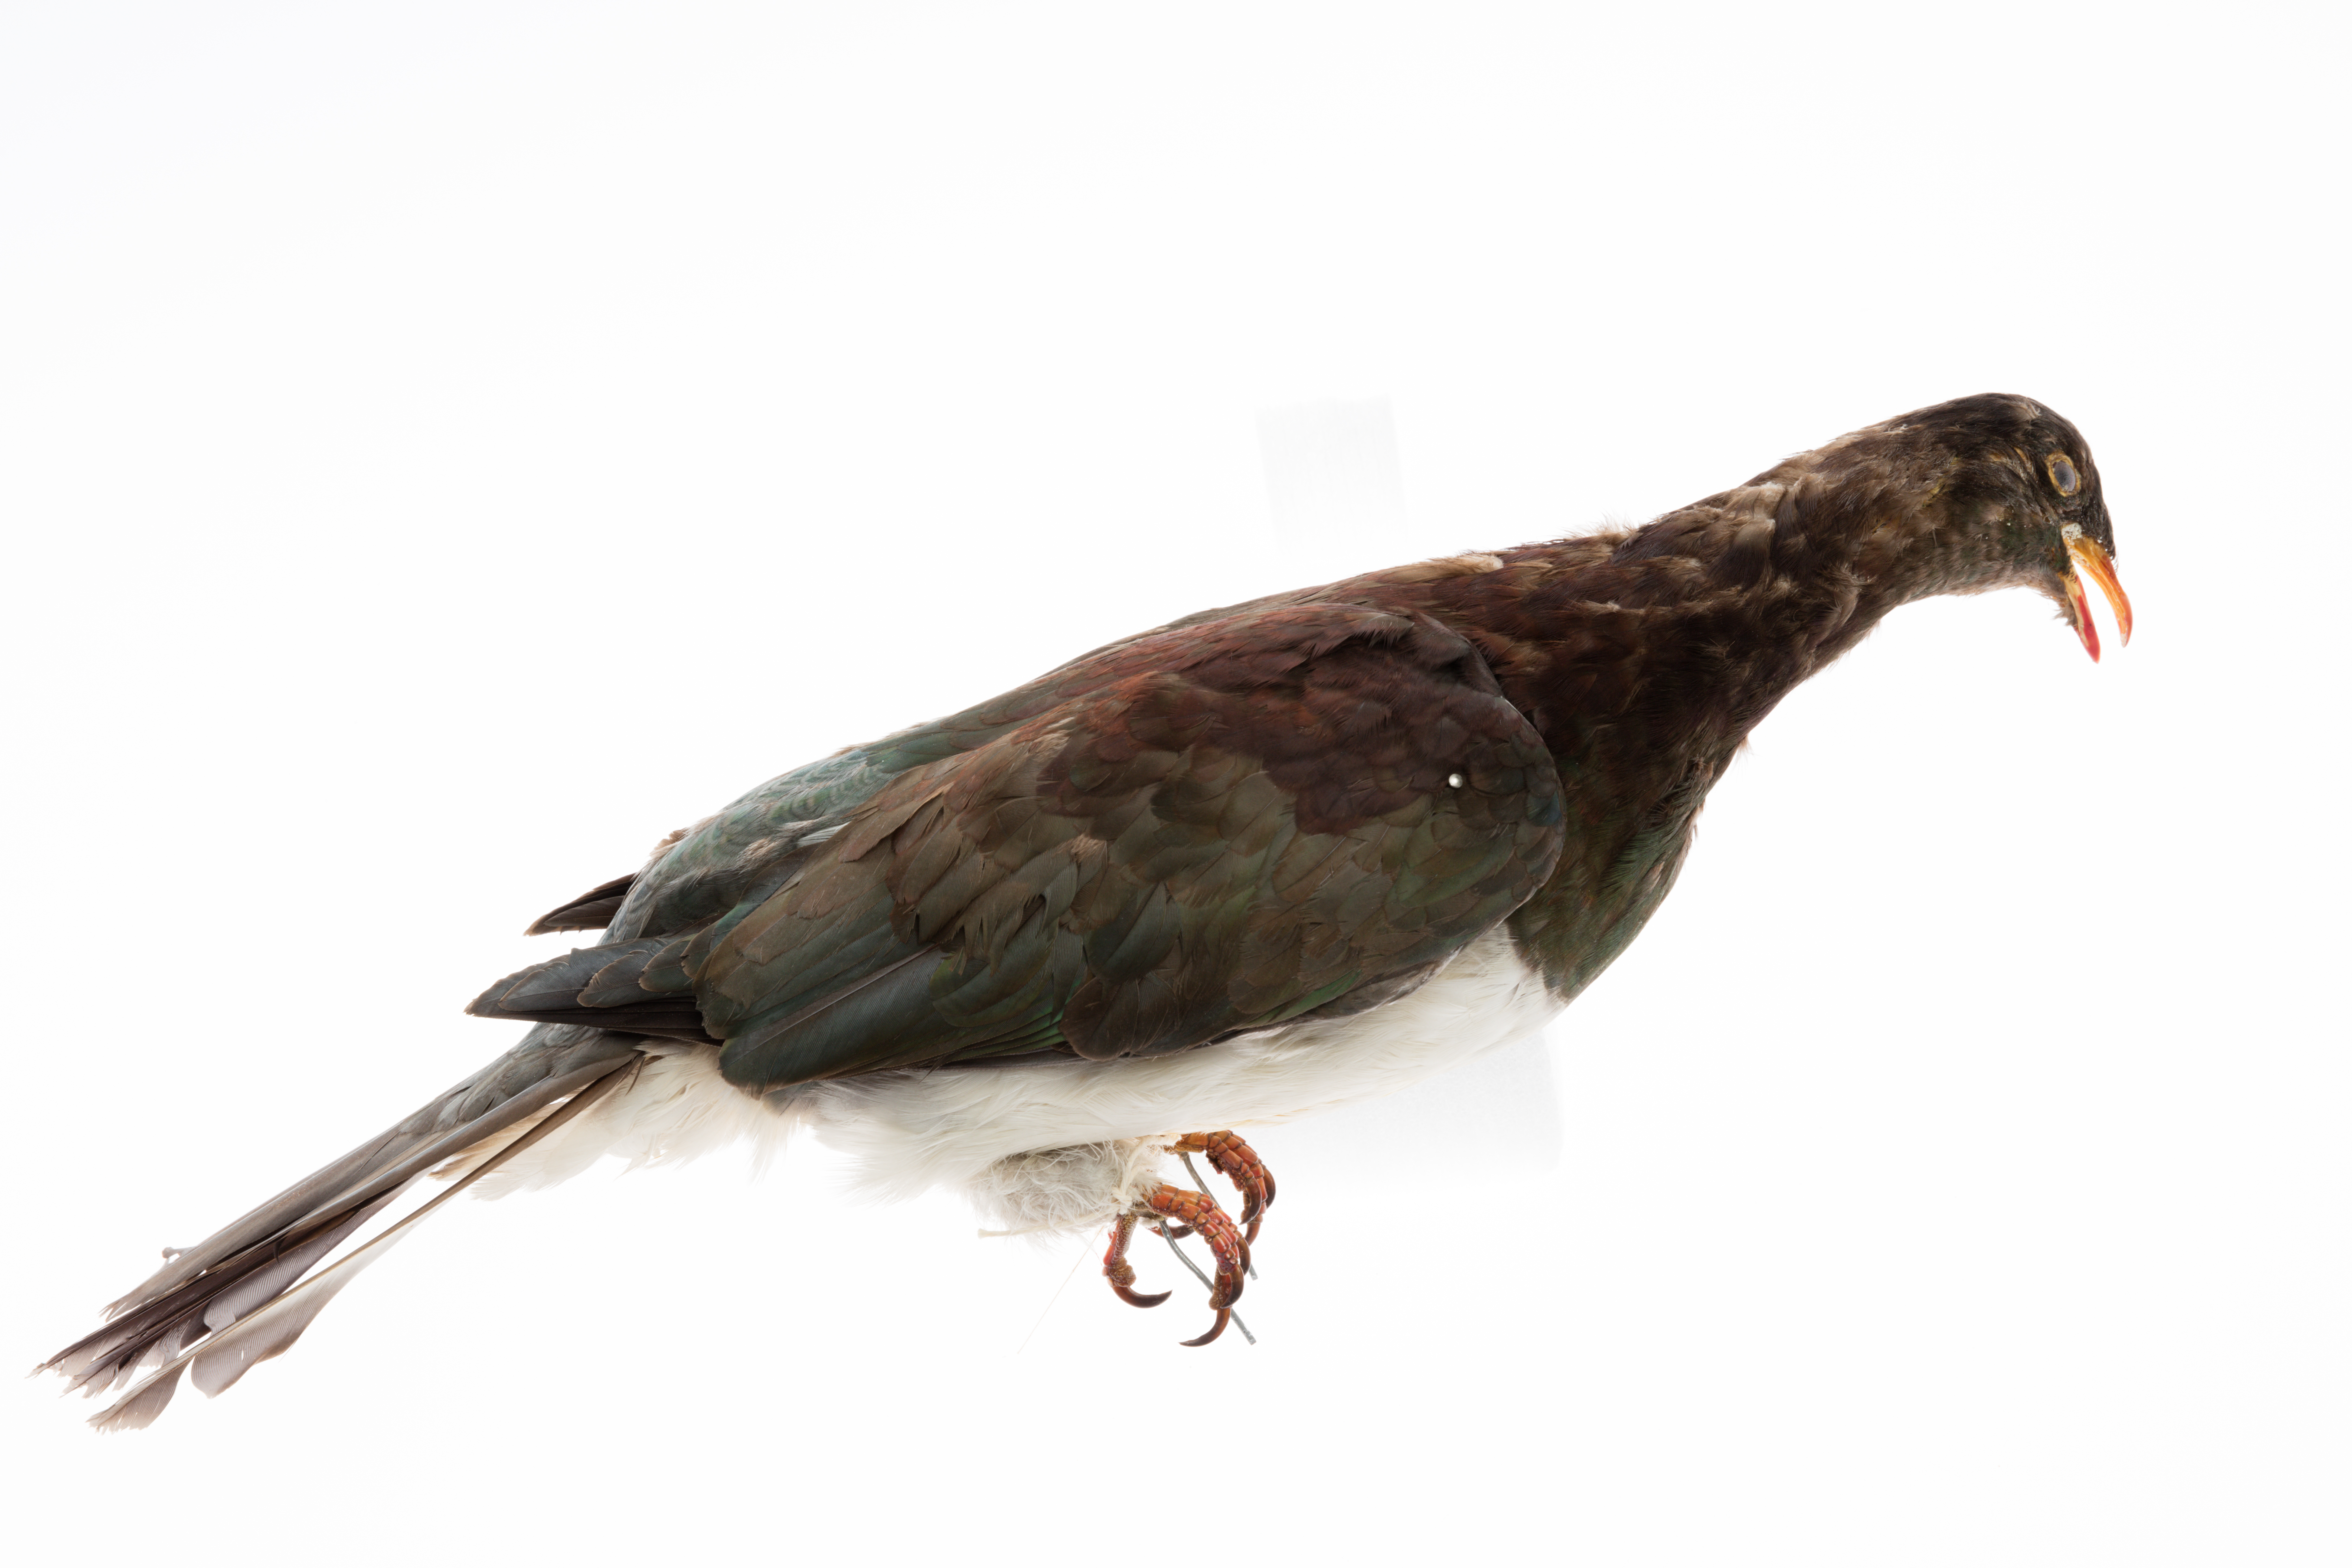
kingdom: Animalia
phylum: Chordata
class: Aves
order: Columbiformes
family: Columbidae
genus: Hemiphaga
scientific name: Hemiphaga novaeseelandiae
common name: New zealand pigeon
